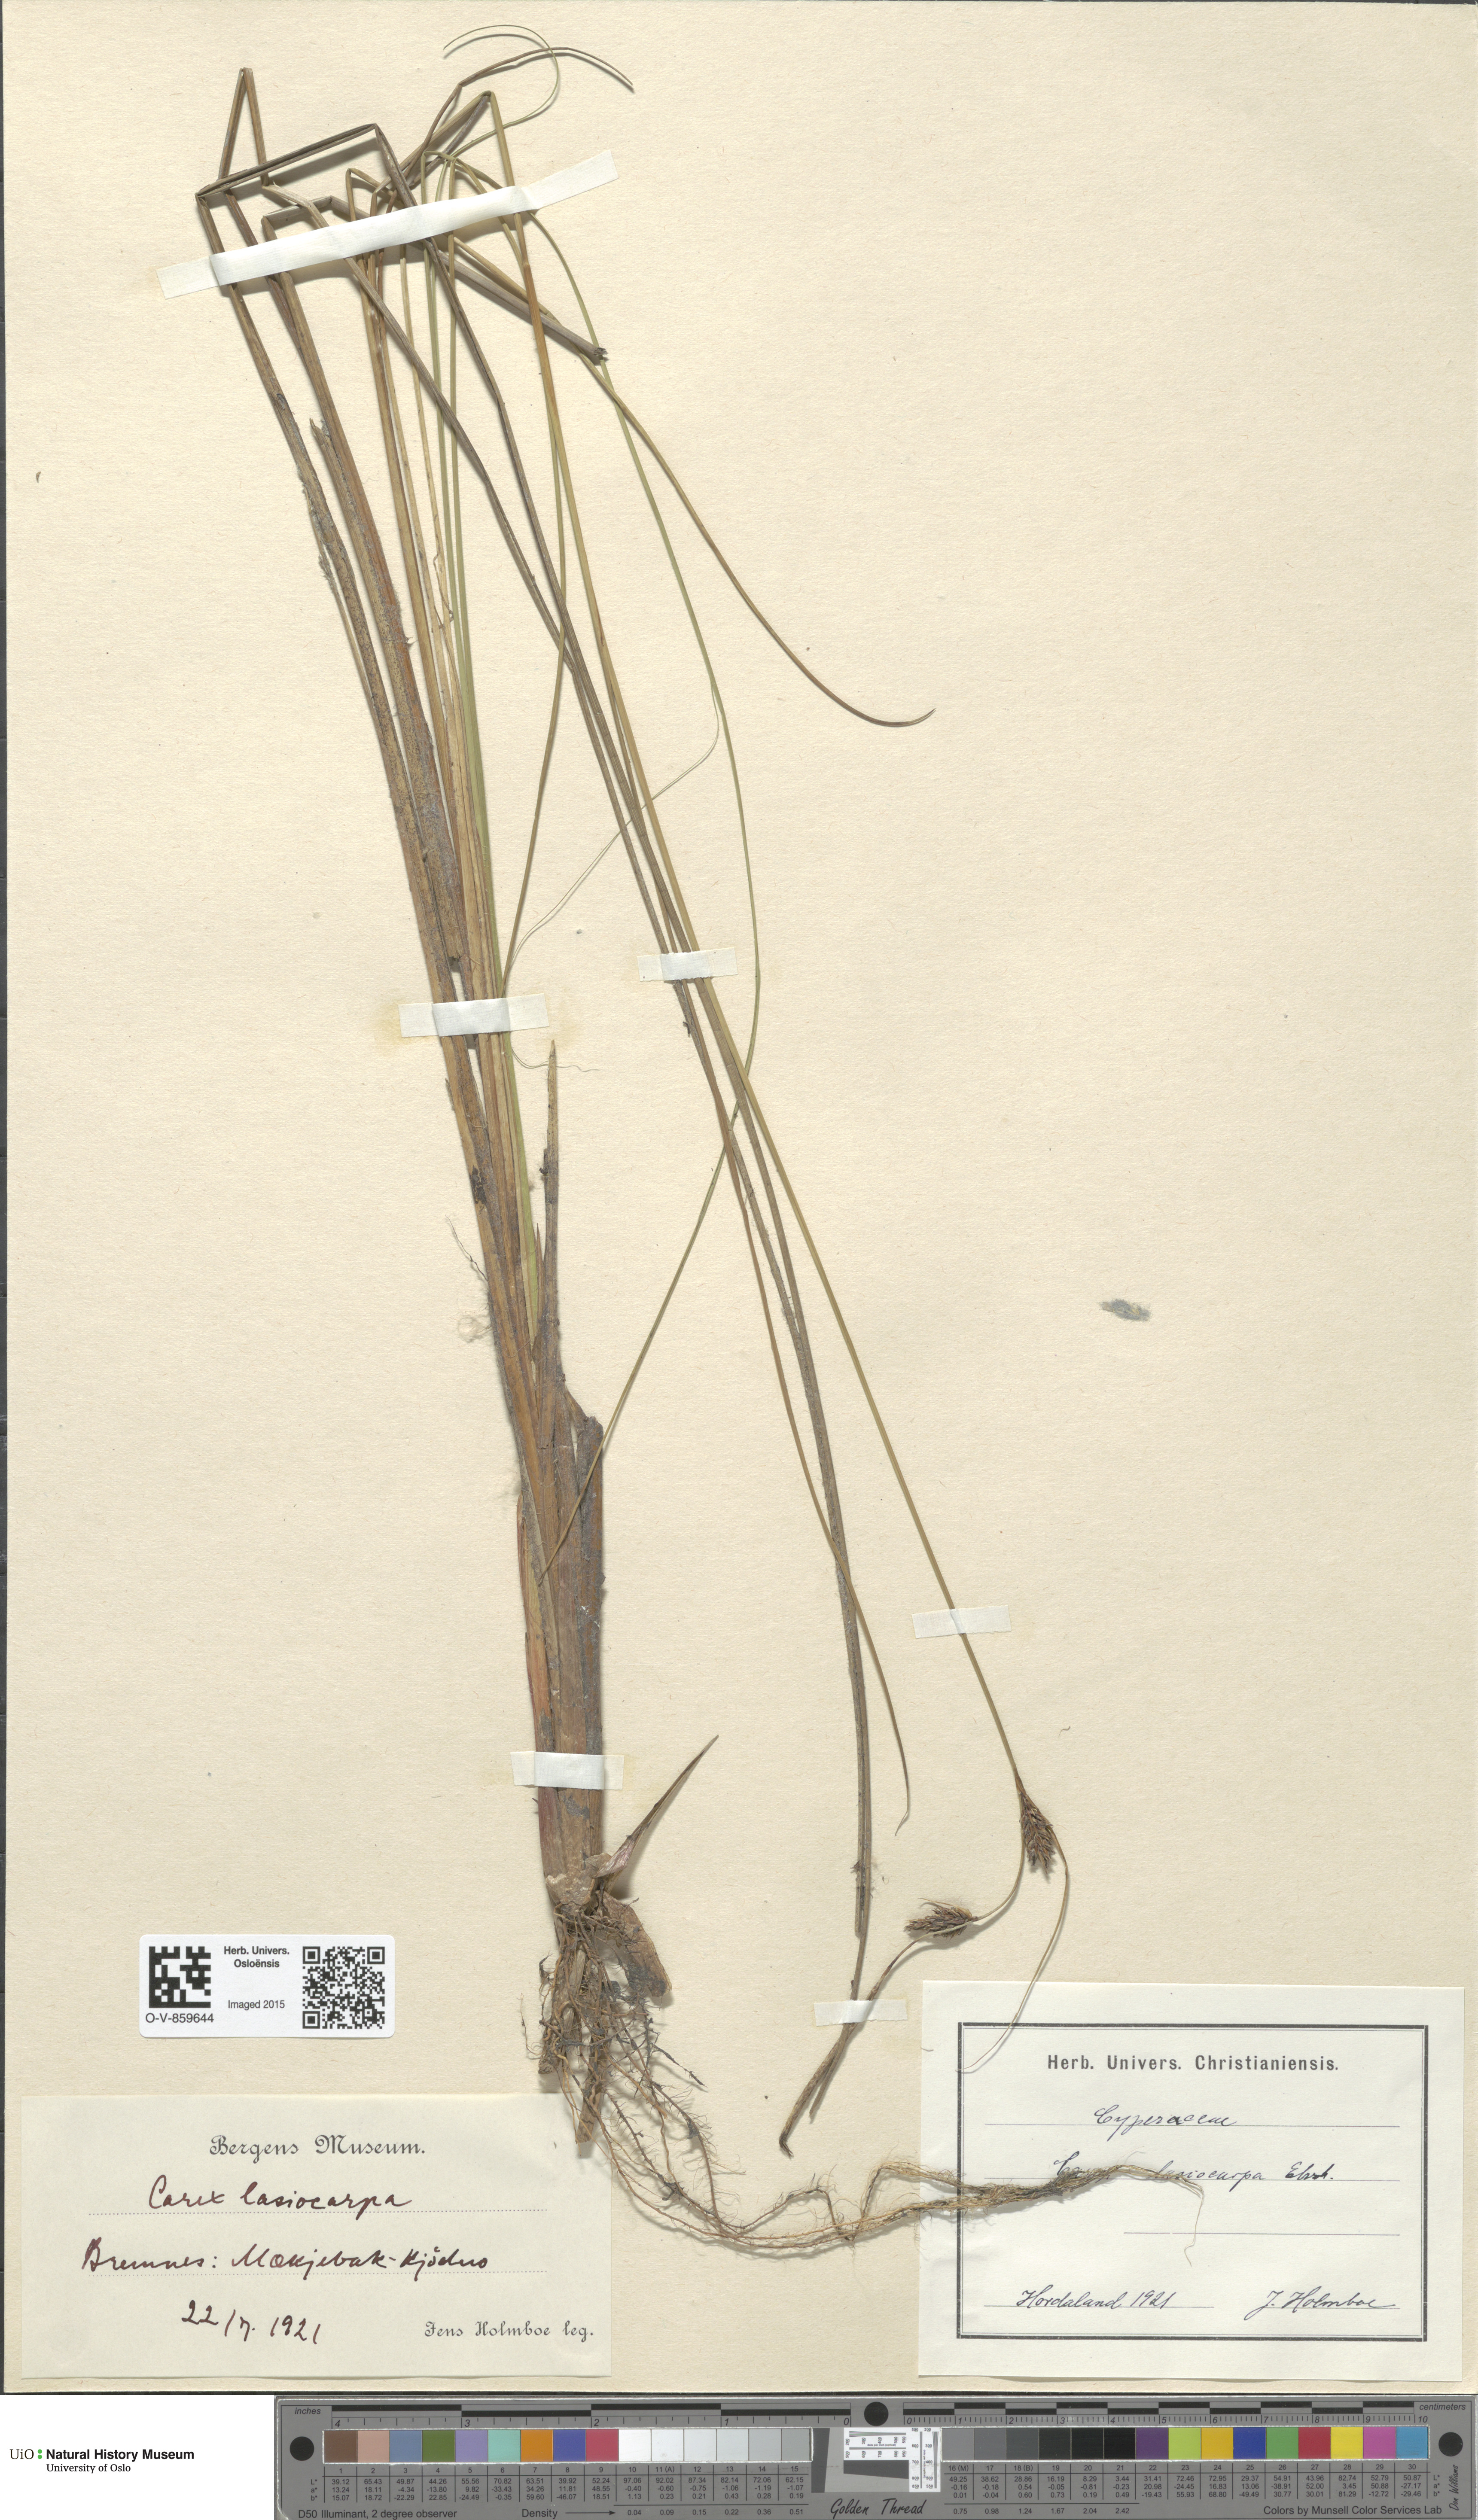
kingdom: Plantae
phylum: Tracheophyta
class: Liliopsida
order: Poales
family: Cyperaceae
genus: Carex
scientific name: Carex lasiocarpa
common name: Slender sedge
